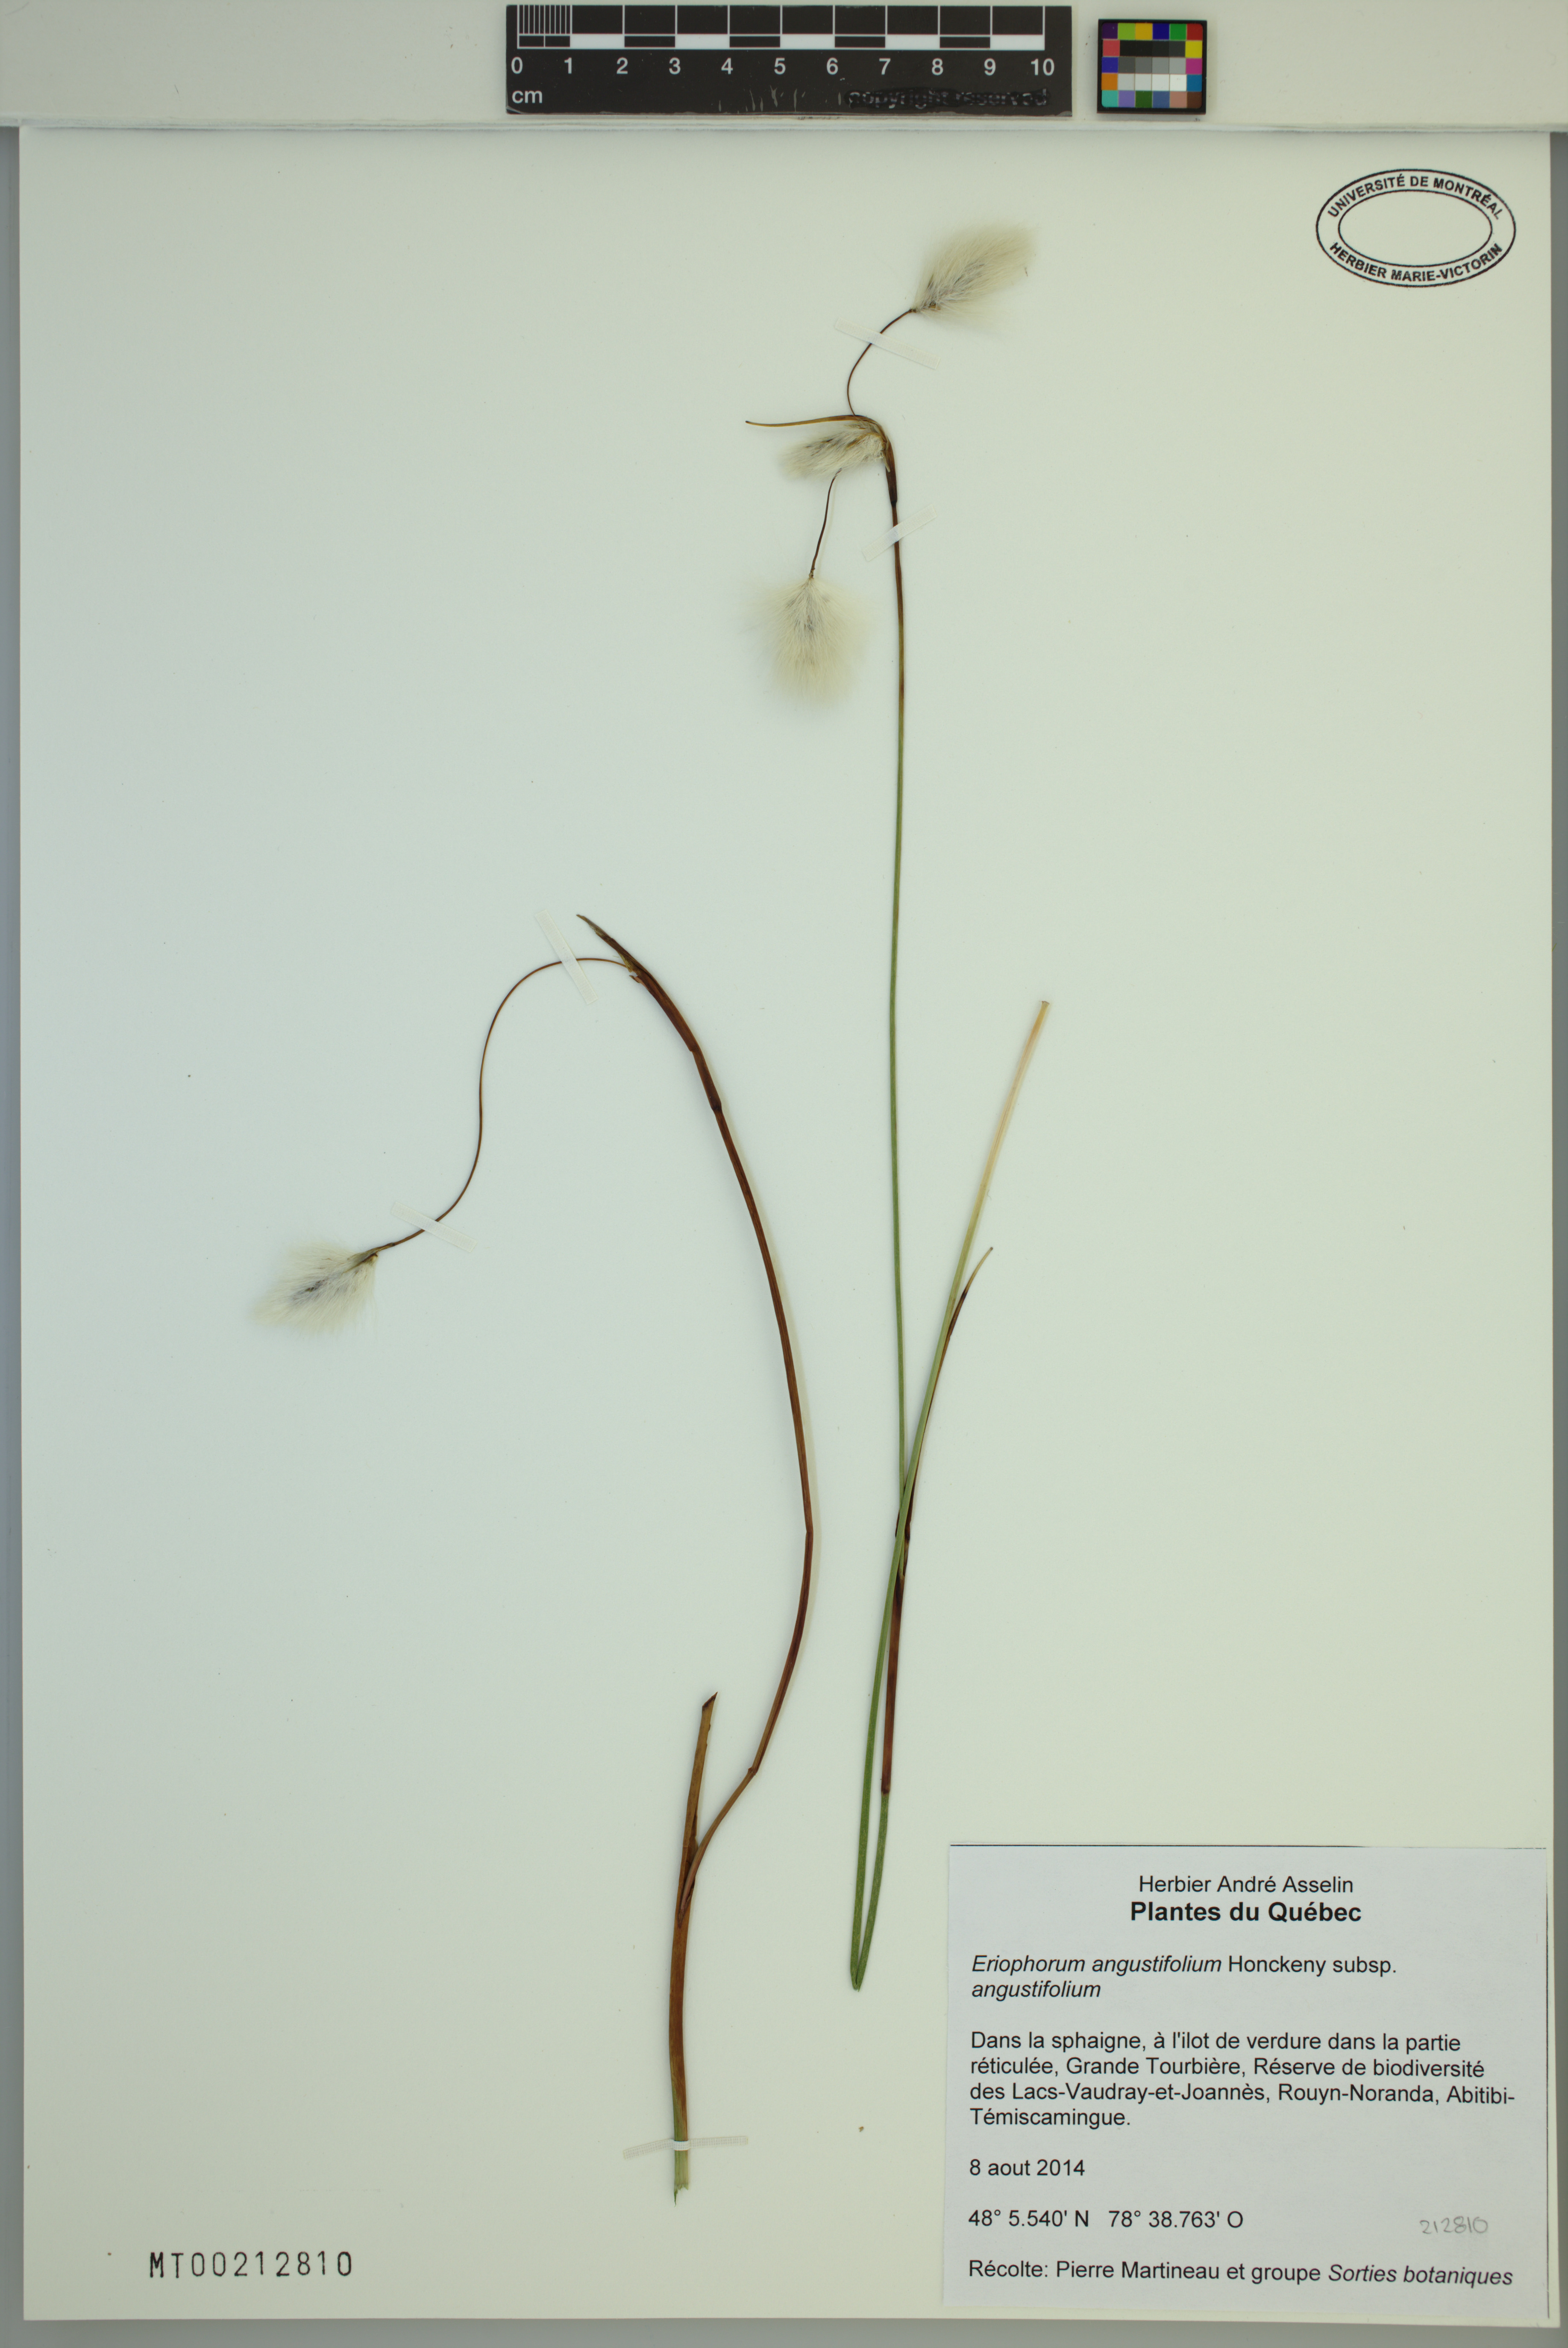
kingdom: Plantae
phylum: Tracheophyta
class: Liliopsida
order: Poales
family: Cyperaceae
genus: Eriophorum
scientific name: Eriophorum angustifolium
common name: Common cottongrass
